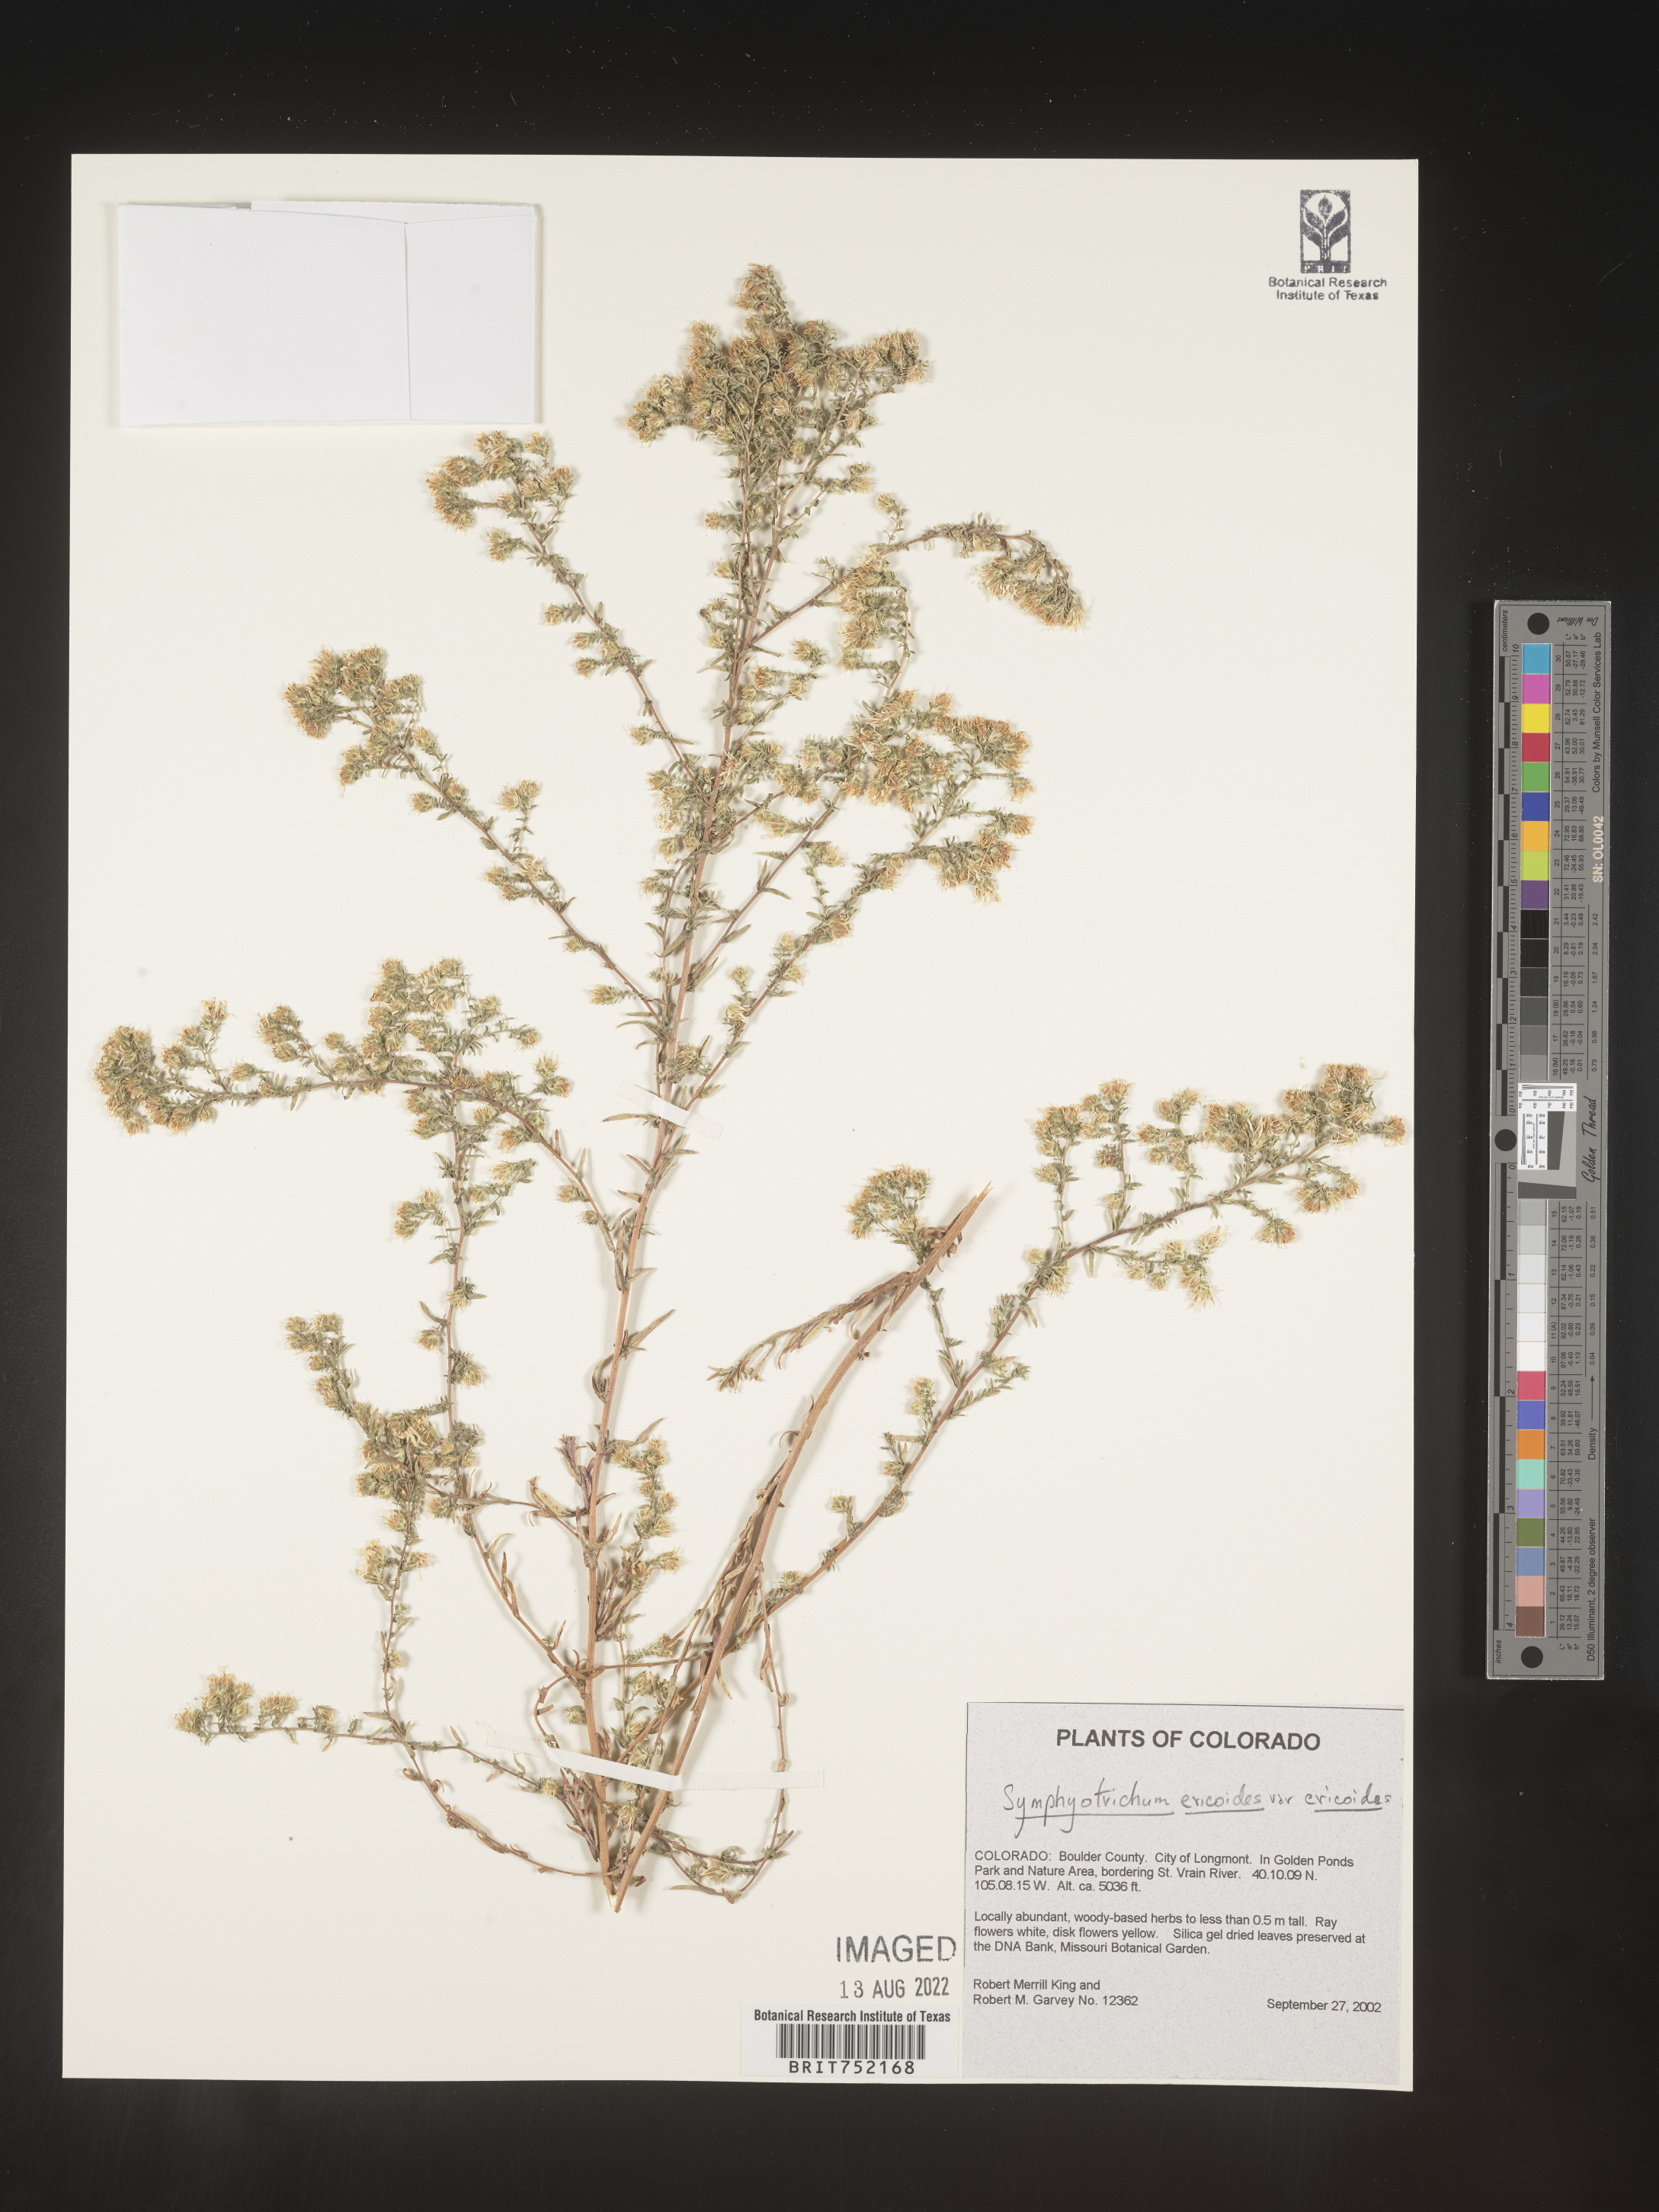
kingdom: Plantae
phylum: Tracheophyta
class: Magnoliopsida
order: Asterales
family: Asteraceae
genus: Symphyotrichum
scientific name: Symphyotrichum ericoides
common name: Heath aster
